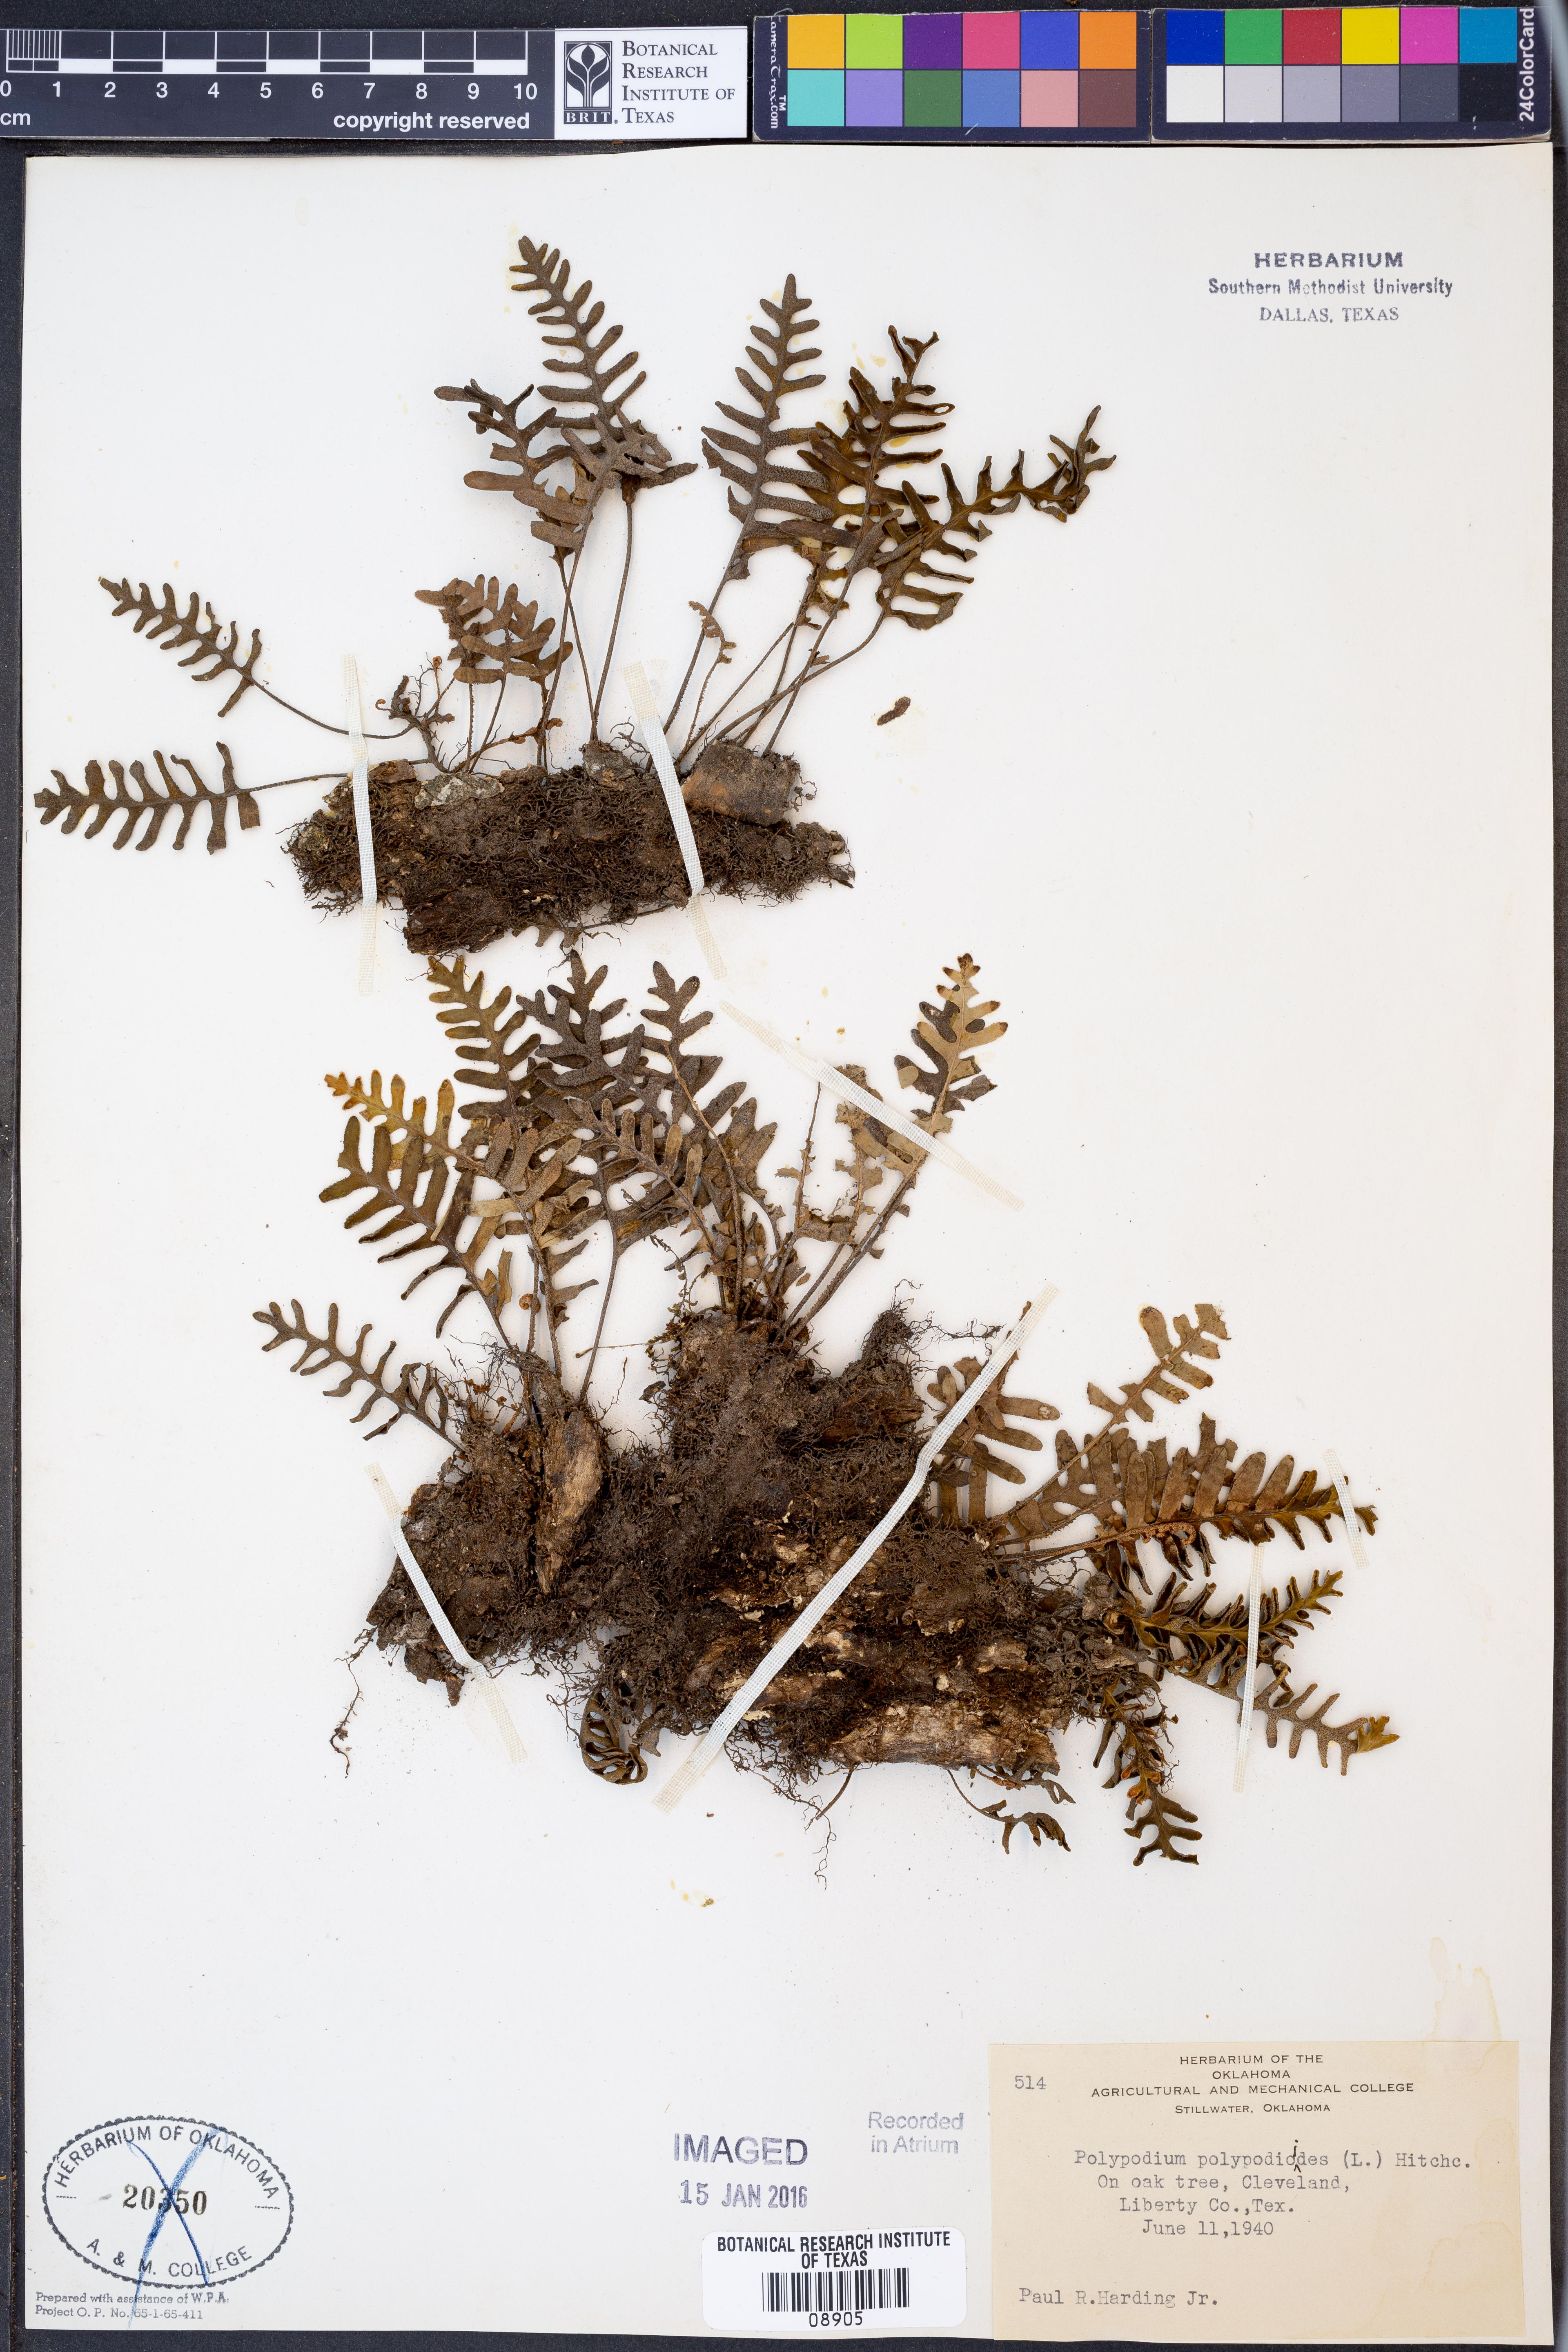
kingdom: Plantae
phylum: Tracheophyta
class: Polypodiopsida
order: Polypodiales
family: Polypodiaceae
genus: Pleopeltis
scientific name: Pleopeltis polypodioides
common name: Resurrection fern
